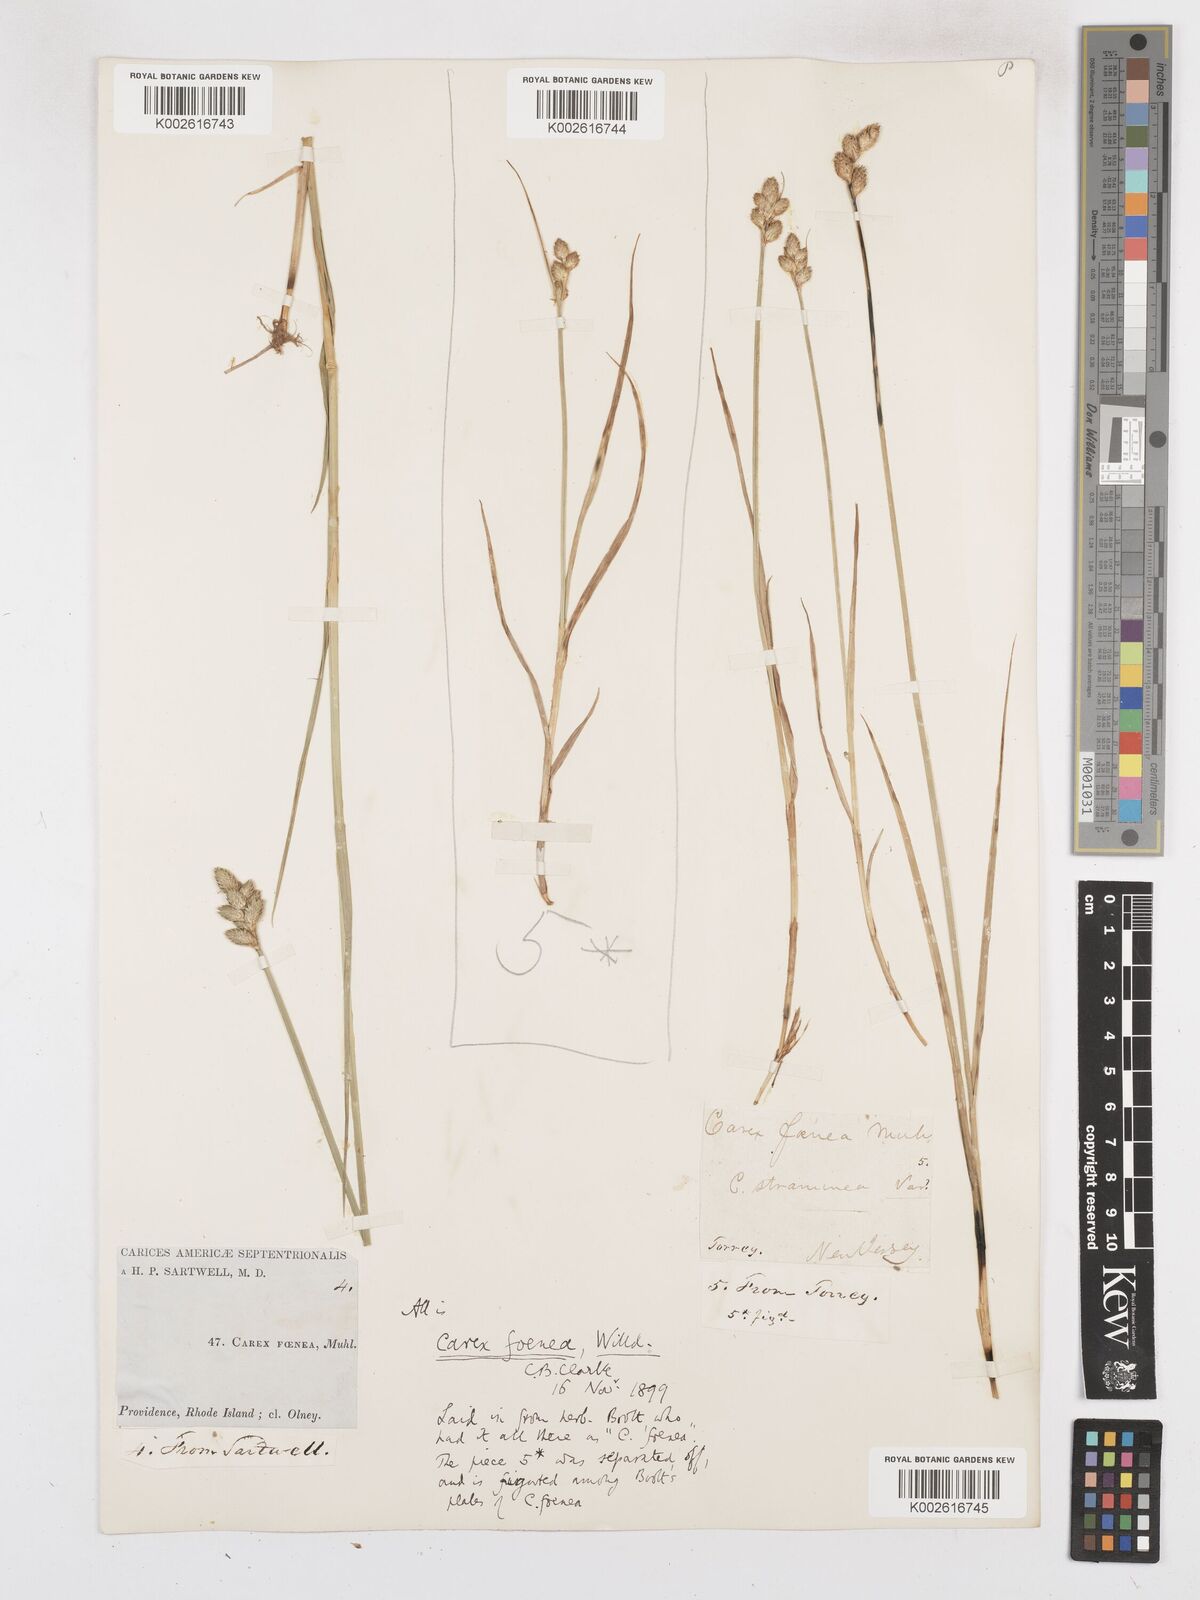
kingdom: Plantae
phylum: Tracheophyta
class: Liliopsida
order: Poales
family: Cyperaceae
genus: Carex
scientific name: Carex argyrantha
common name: Silvery-flowered sedge
